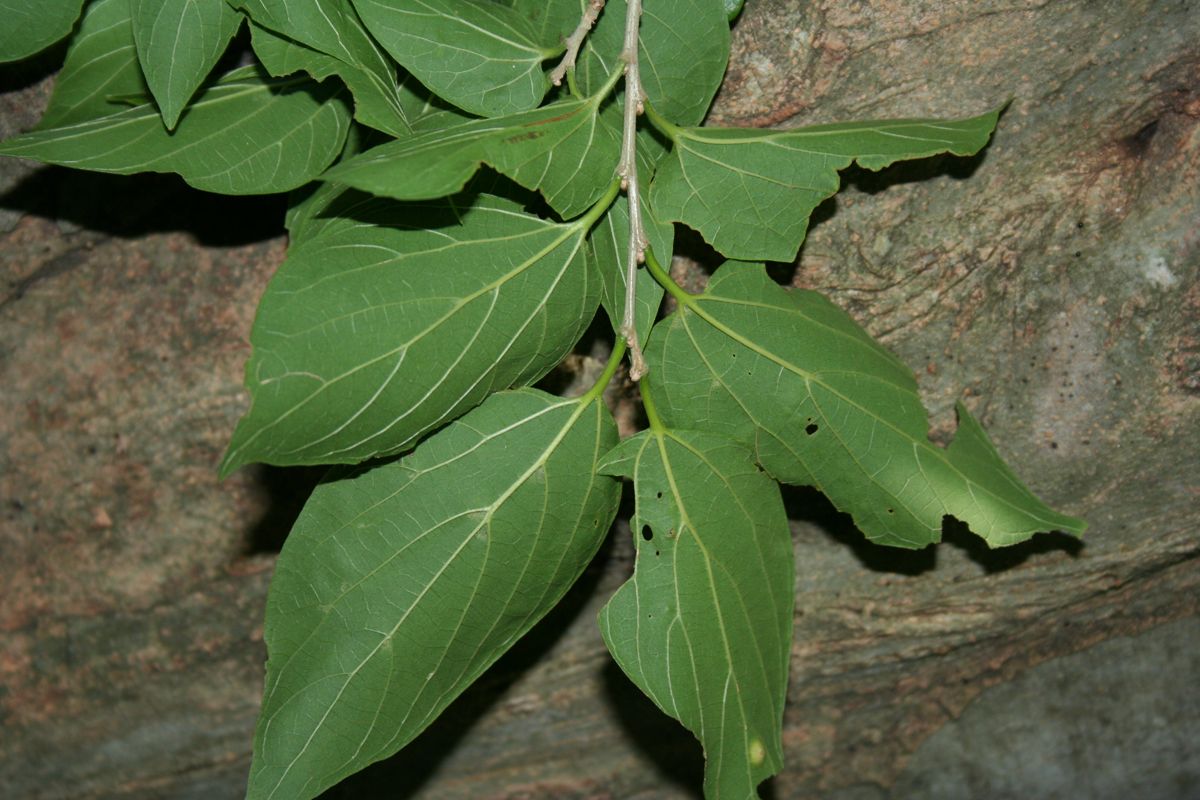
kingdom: Plantae
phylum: Tracheophyta
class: Magnoliopsida
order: Rosales
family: Cannabaceae
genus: Celtis
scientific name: Celtis caudata
